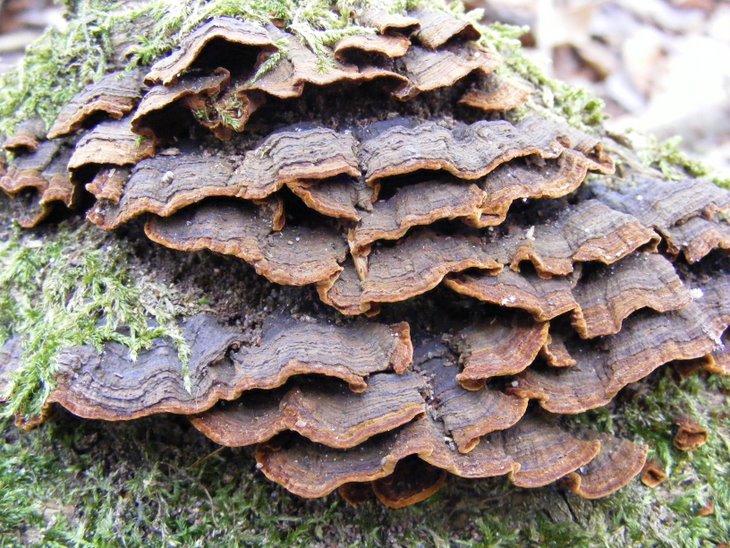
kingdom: Fungi
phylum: Basidiomycota
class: Agaricomycetes
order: Polyporales
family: Meruliaceae
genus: Phlebia
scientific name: Phlebia radiata
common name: stråle-åresvamp
